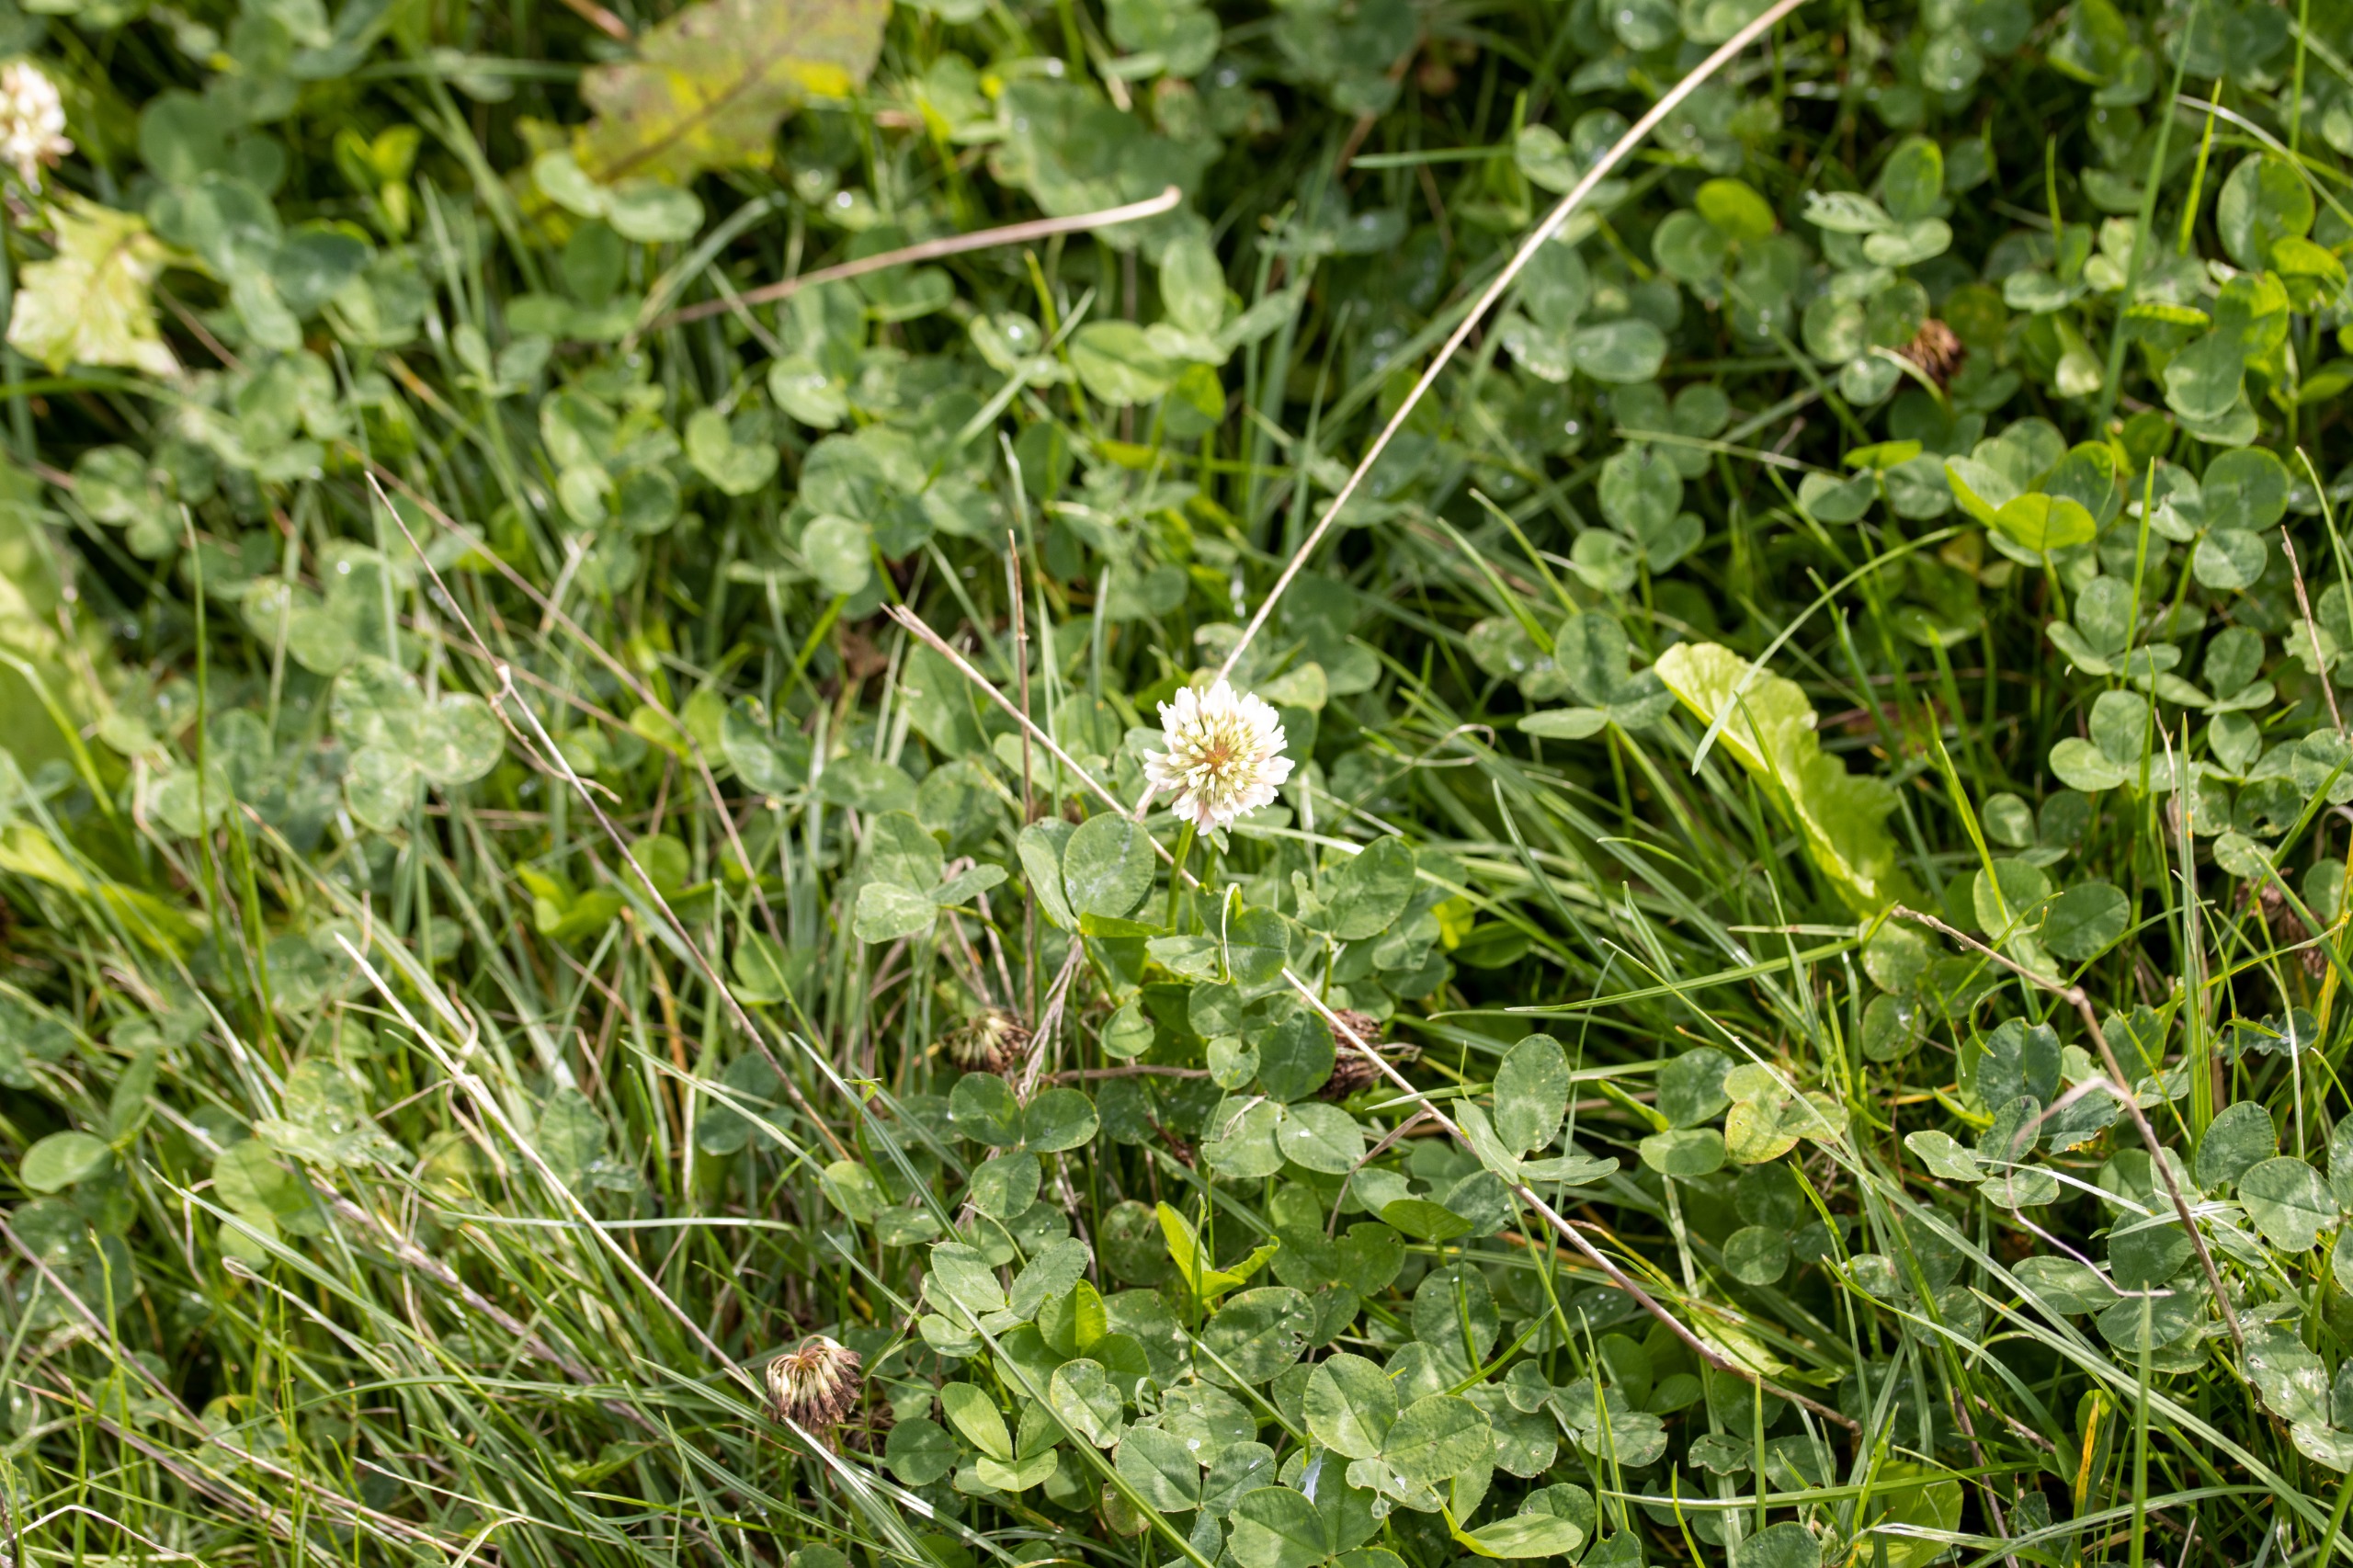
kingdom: Plantae
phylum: Tracheophyta
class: Magnoliopsida
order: Fabales
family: Fabaceae
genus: Trifolium
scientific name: Trifolium repens
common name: Hvid-kløver
